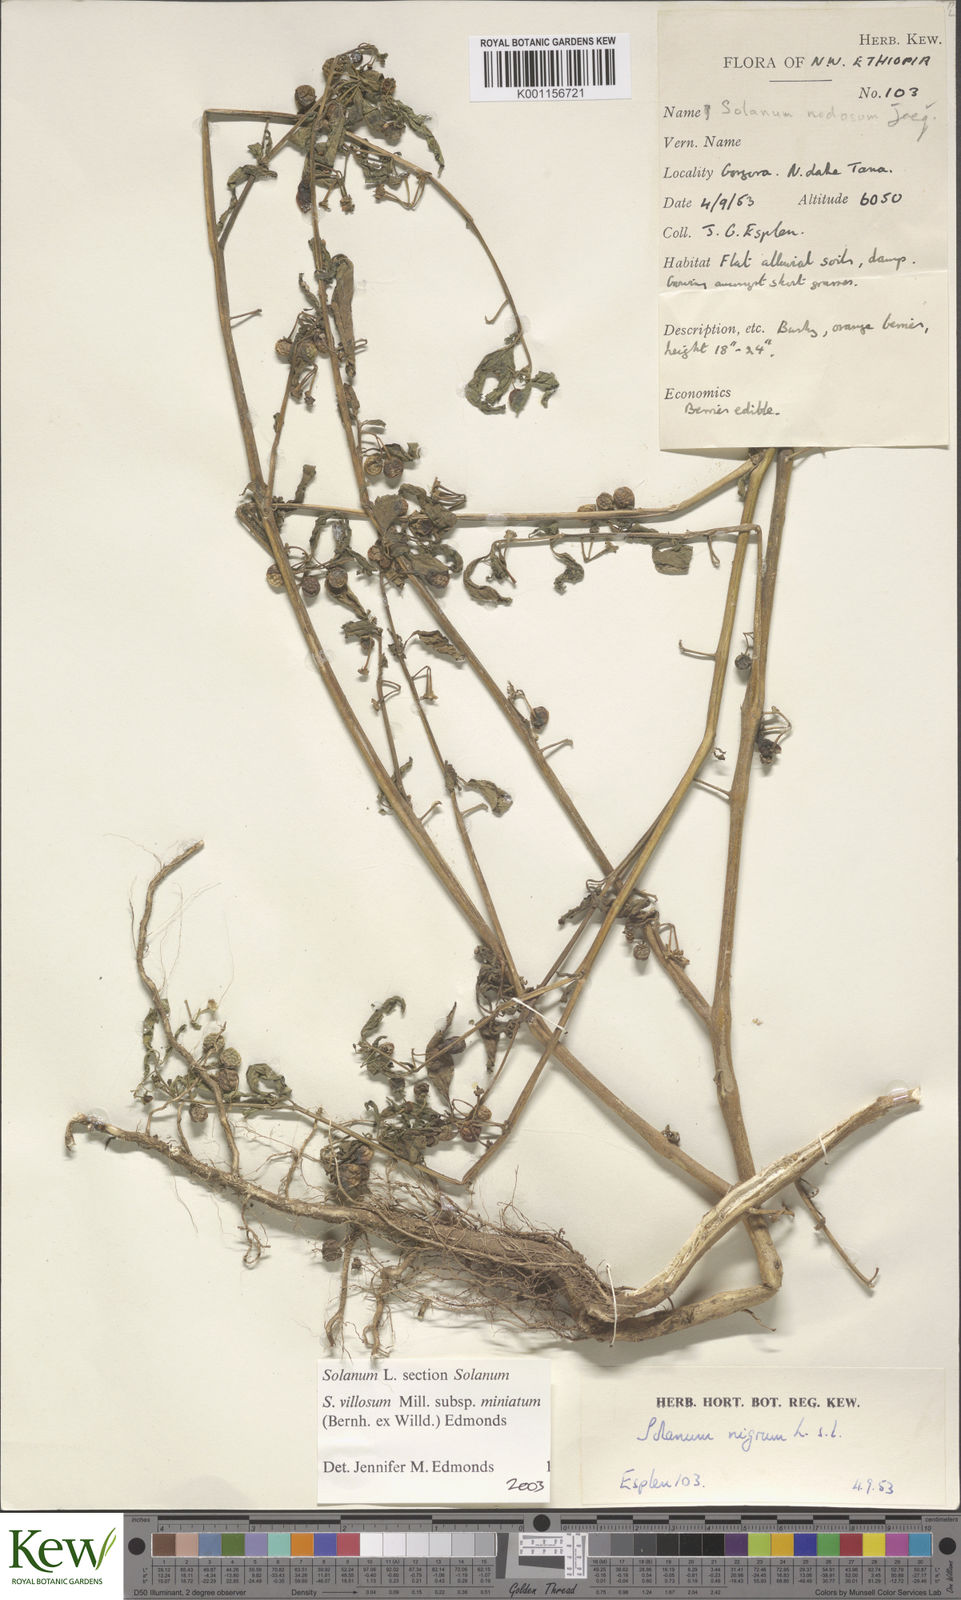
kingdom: Plantae
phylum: Tracheophyta
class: Magnoliopsida
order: Solanales
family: Solanaceae
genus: Solanum
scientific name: Solanum villosum
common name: Red nightshade
